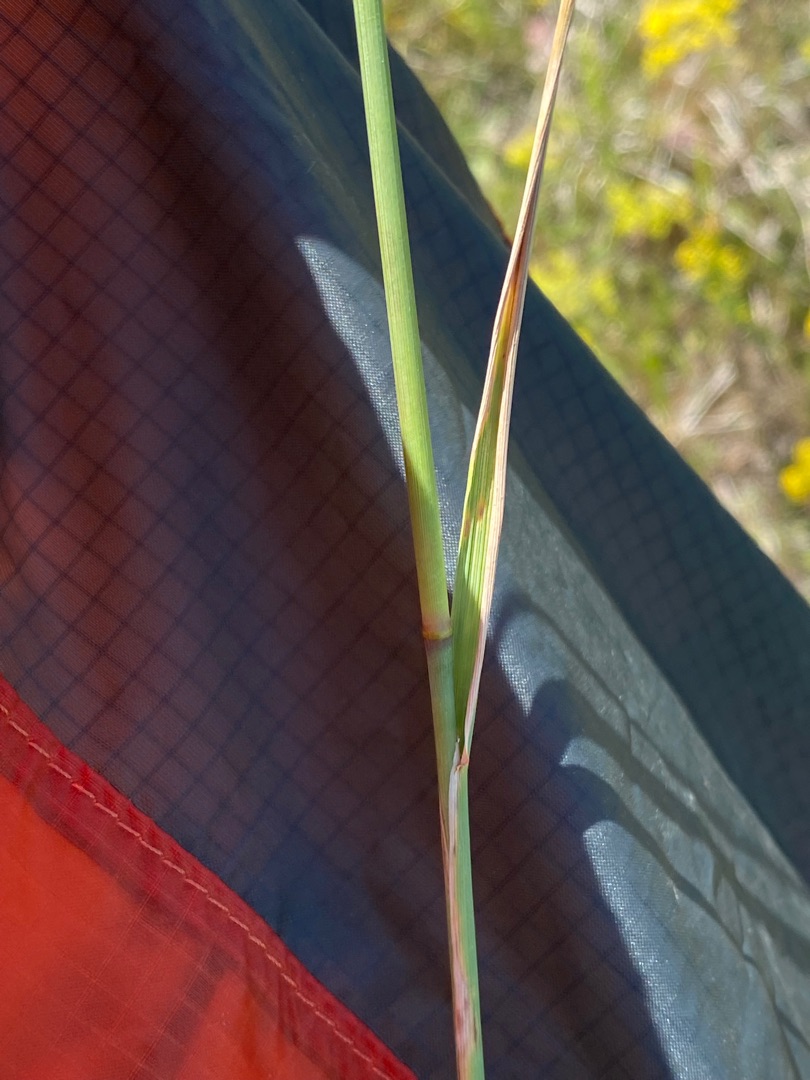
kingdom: Plantae
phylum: Tracheophyta
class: Liliopsida
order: Poales
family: Poaceae
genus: Calamagrostis
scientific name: Calamagrostis epigejos
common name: Bjerg-rørhvene
